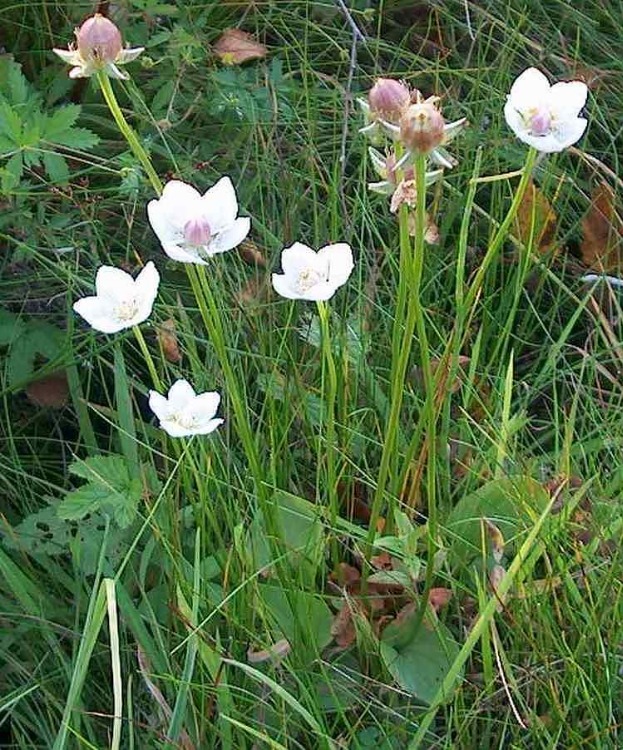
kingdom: Plantae
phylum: Tracheophyta
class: Magnoliopsida
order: Celastrales
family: Parnassiaceae
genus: Parnassia
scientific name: Parnassia palustris
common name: Leverurt
